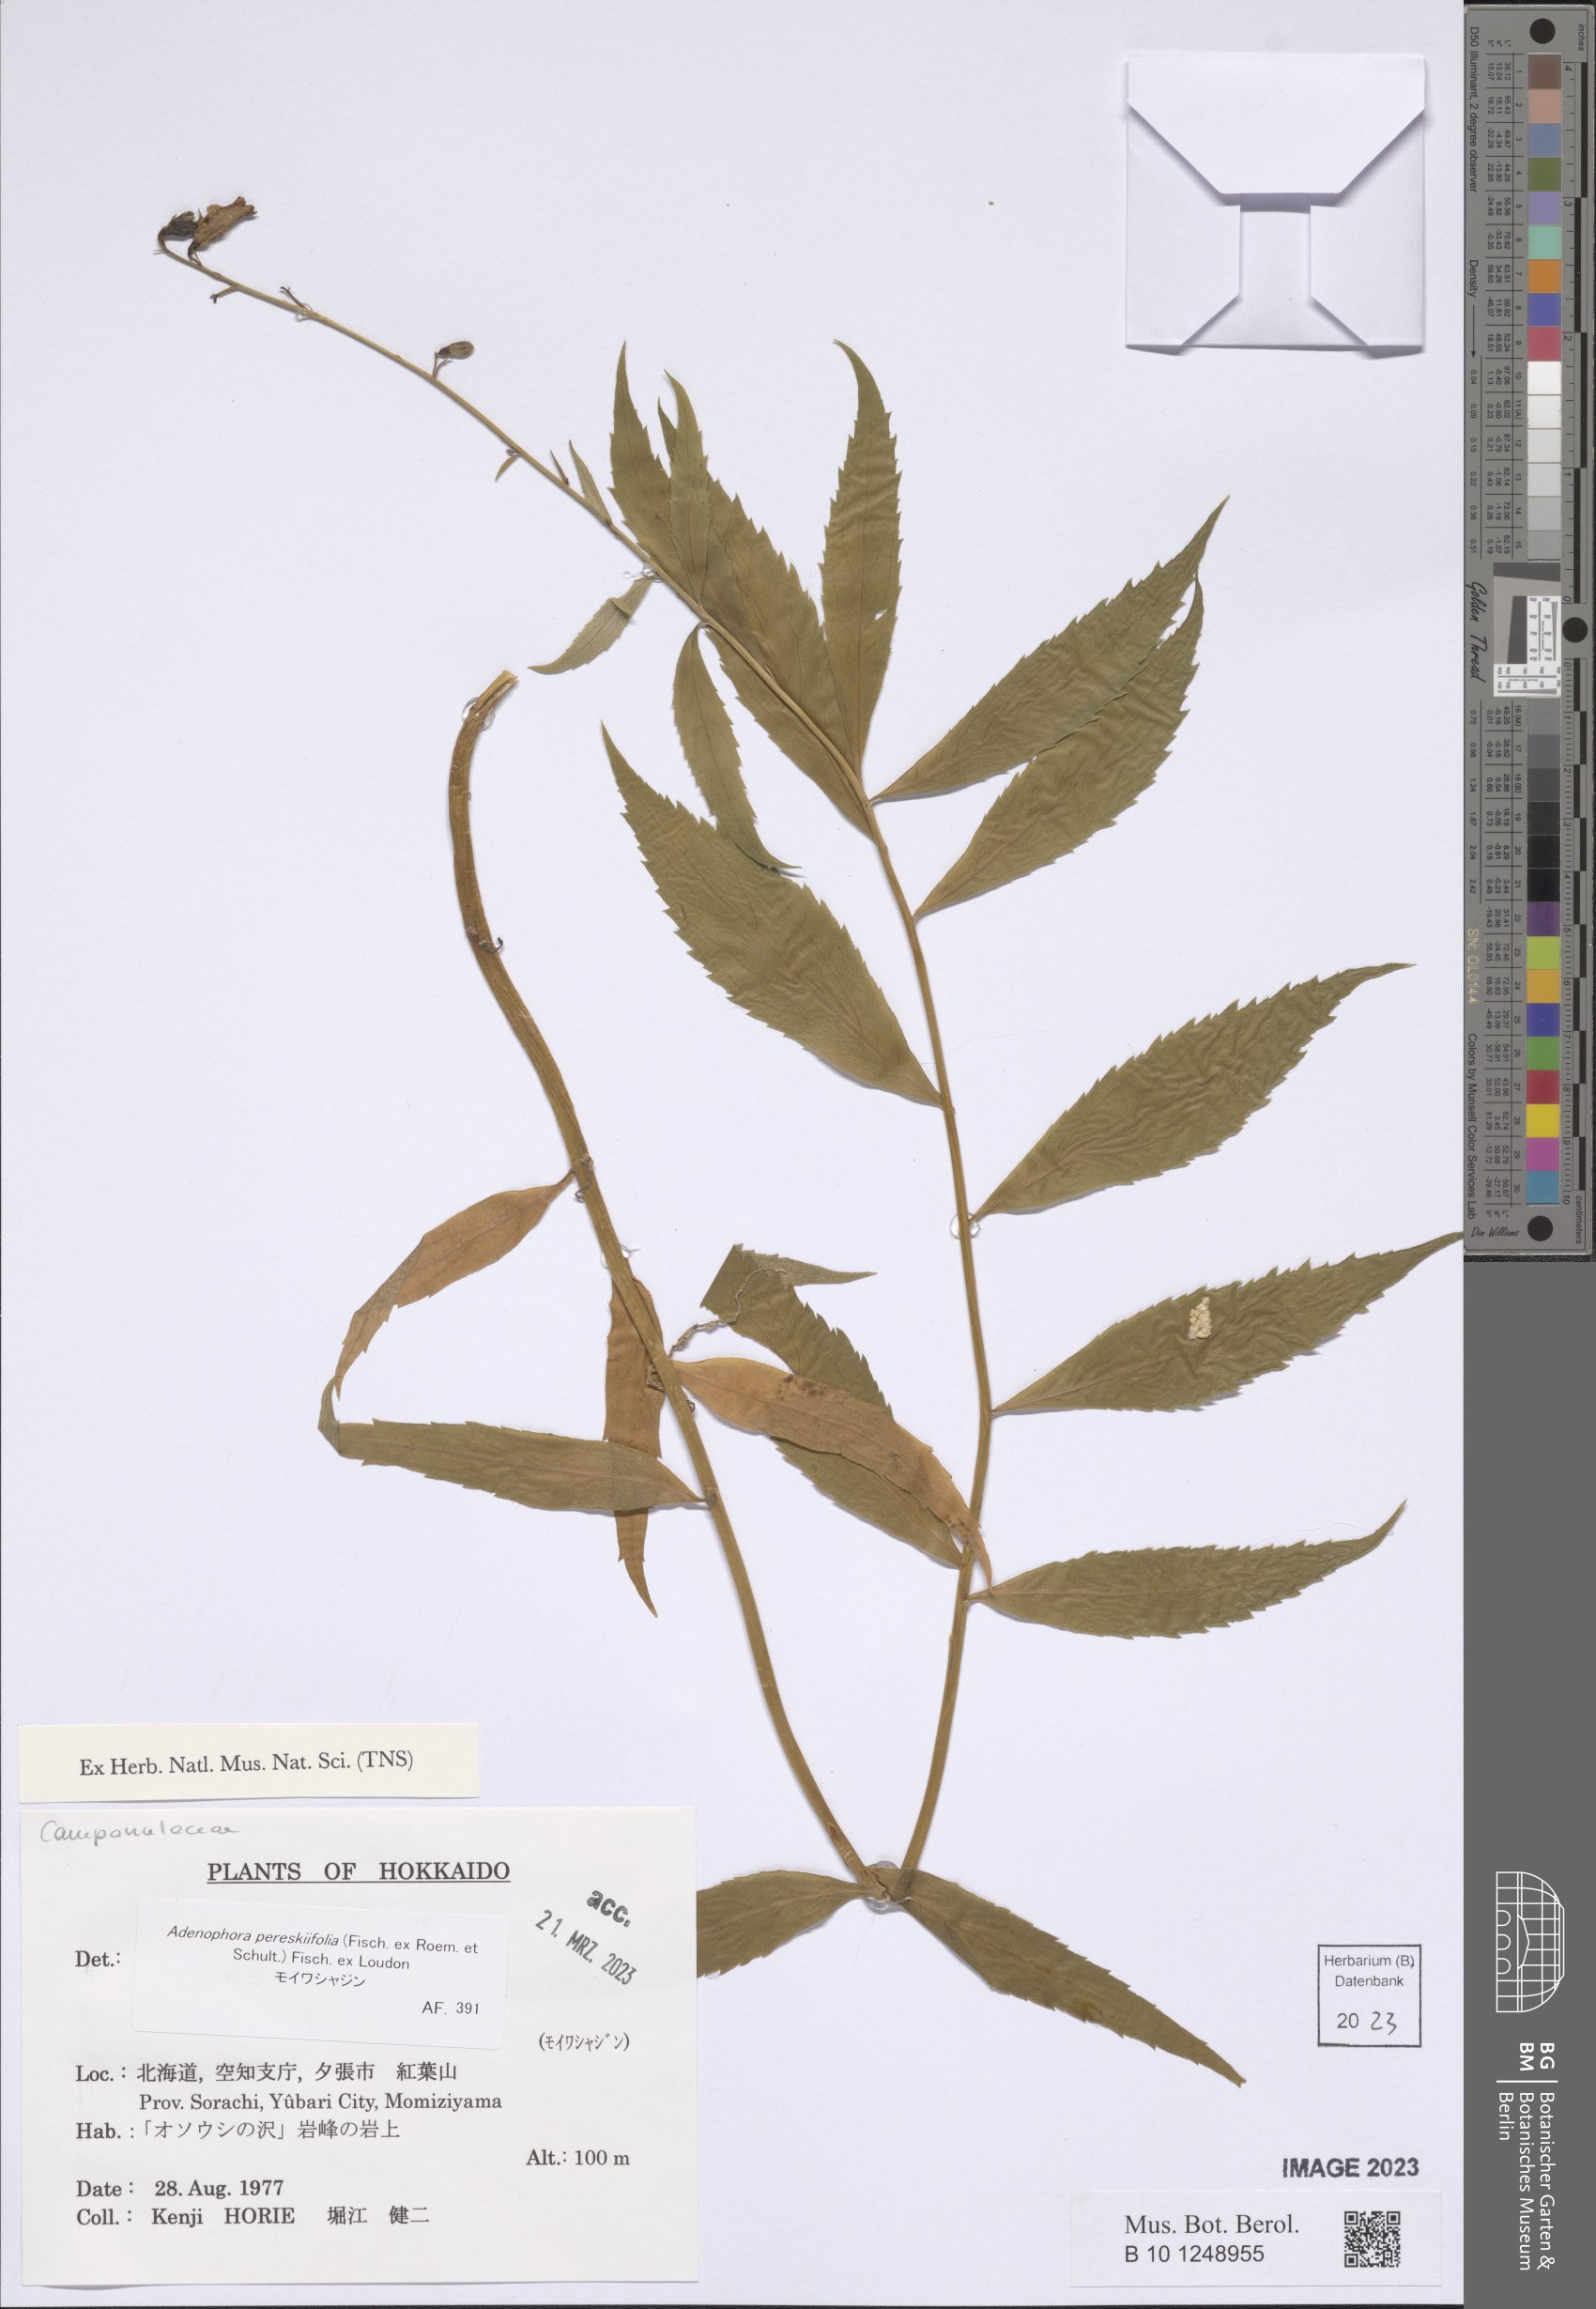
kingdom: Plantae
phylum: Tracheophyta
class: Magnoliopsida
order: Asterales
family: Campanulaceae
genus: Adenophora
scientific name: Adenophora pereskiifolia
